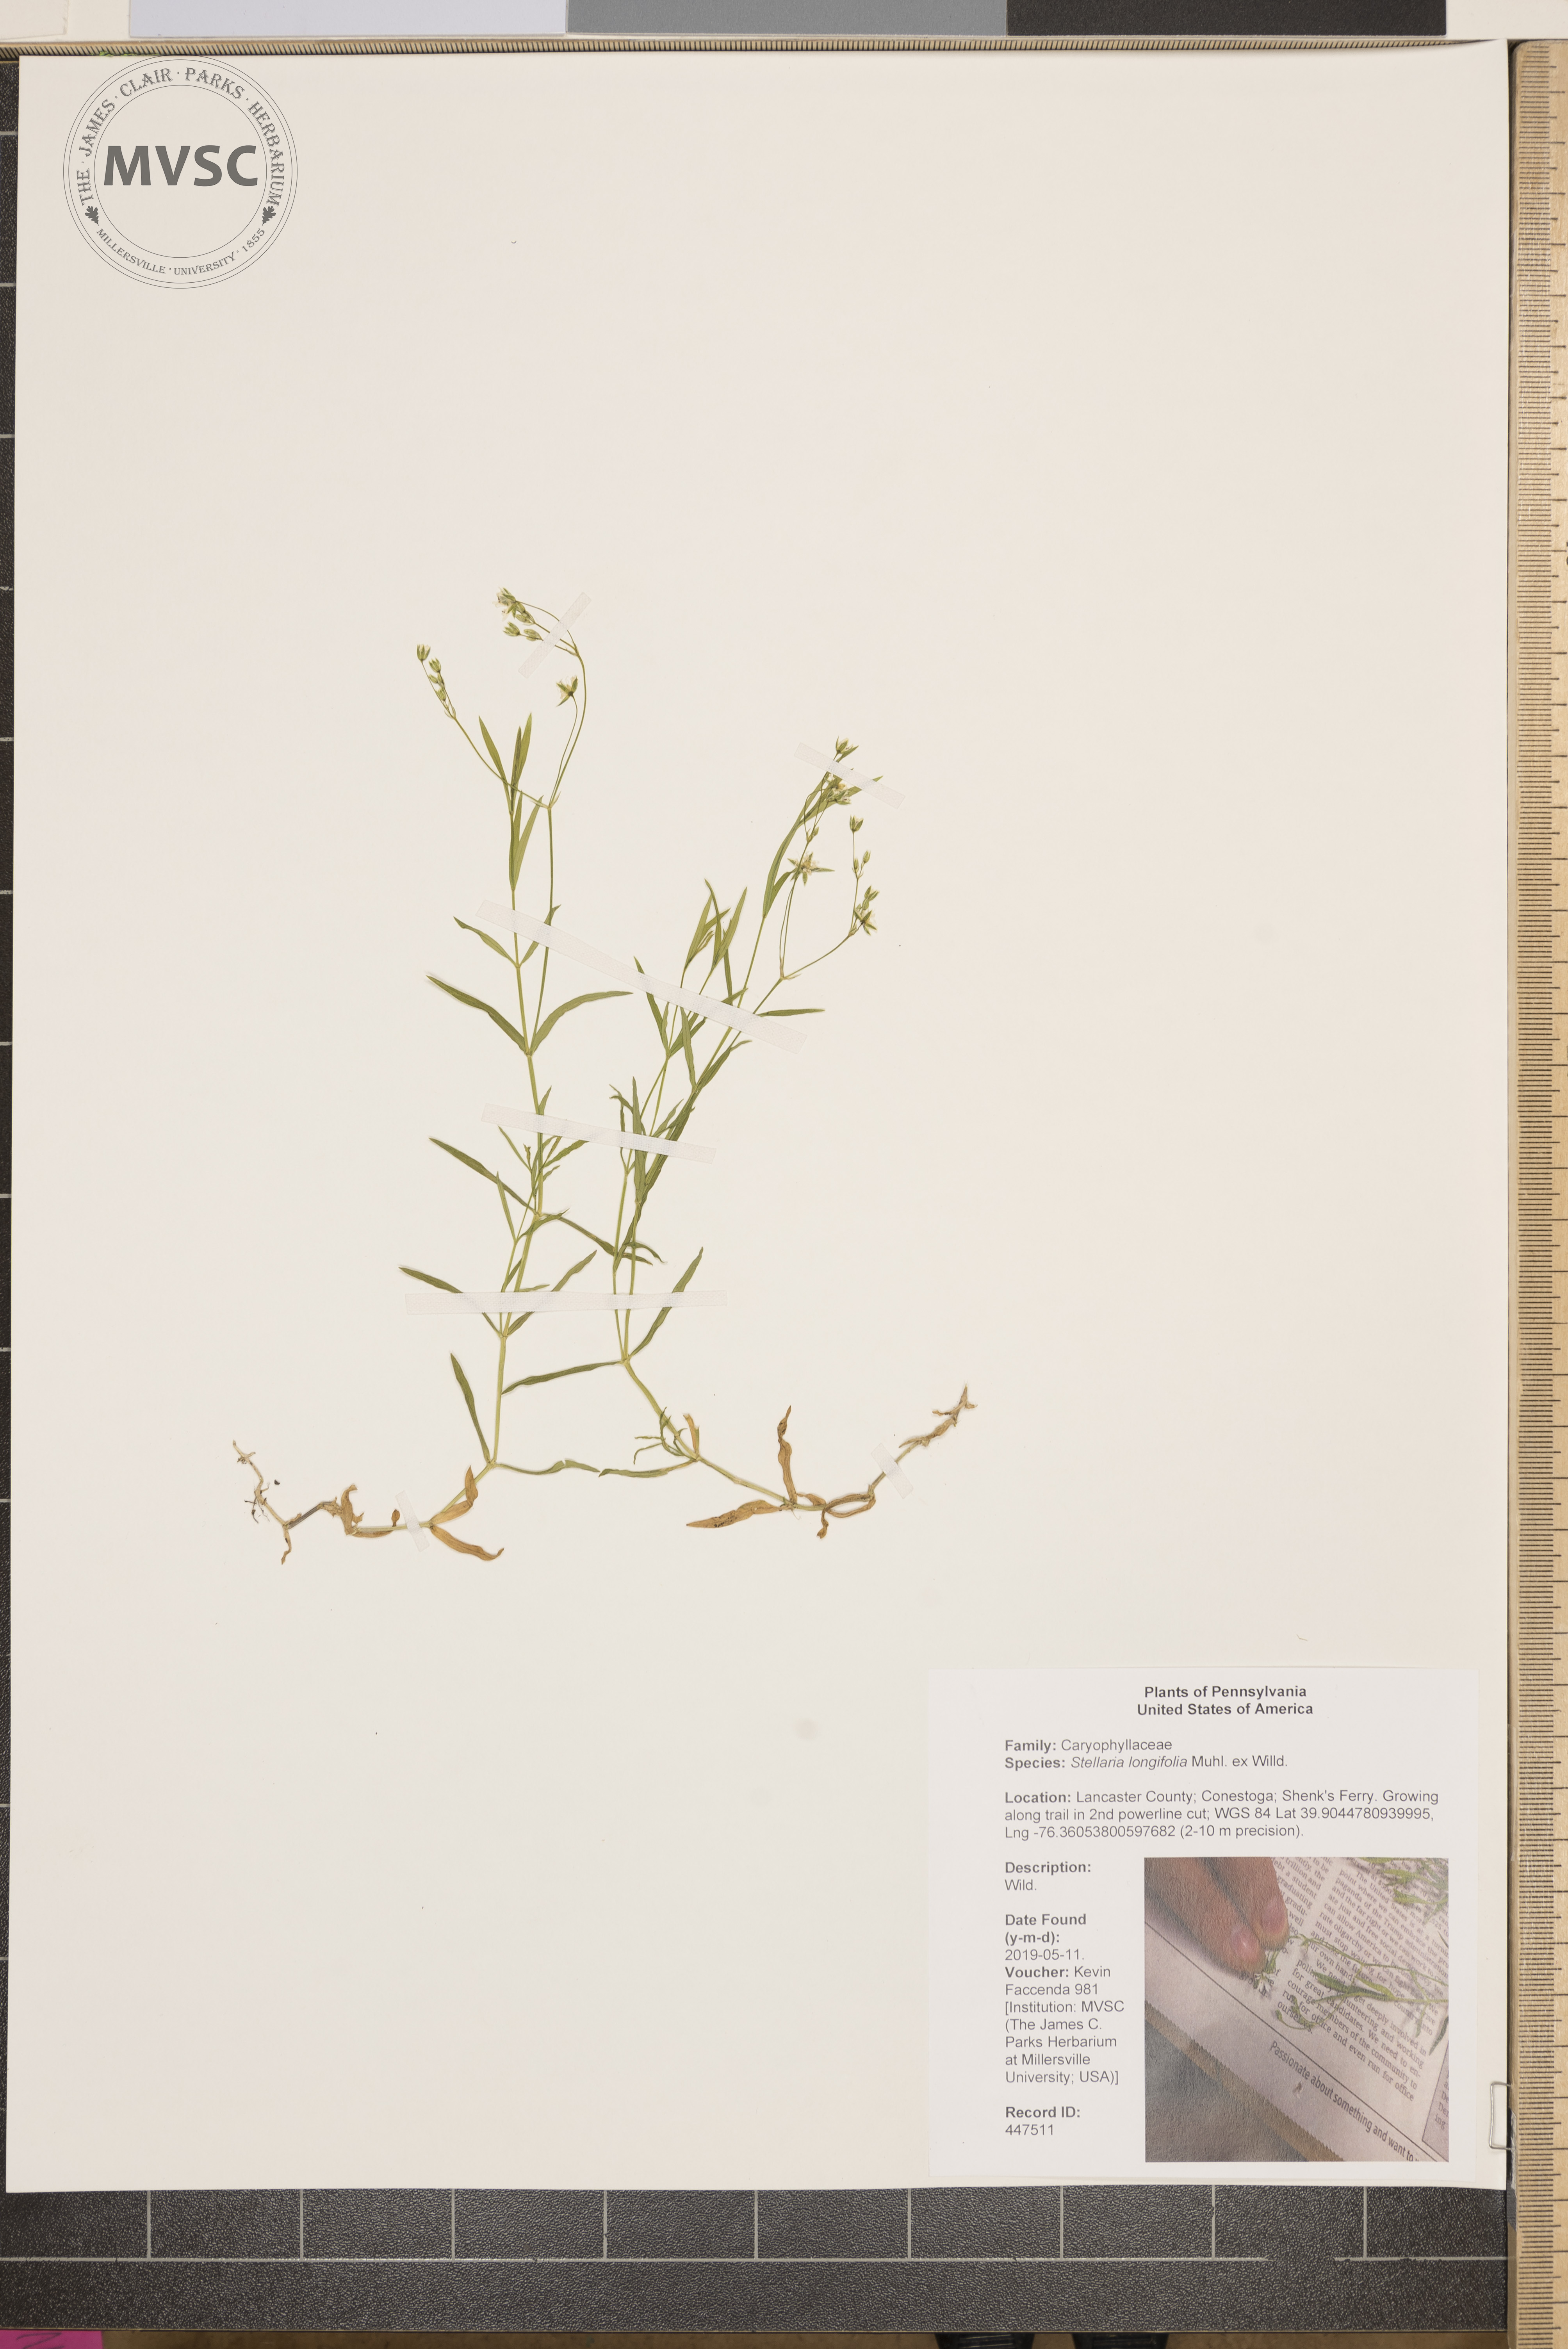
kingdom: Plantae
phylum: Tracheophyta
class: Magnoliopsida
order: Caryophyllales
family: Caryophyllaceae
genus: Stellaria
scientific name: Stellaria longifolia
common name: Long-leaved chickweed
